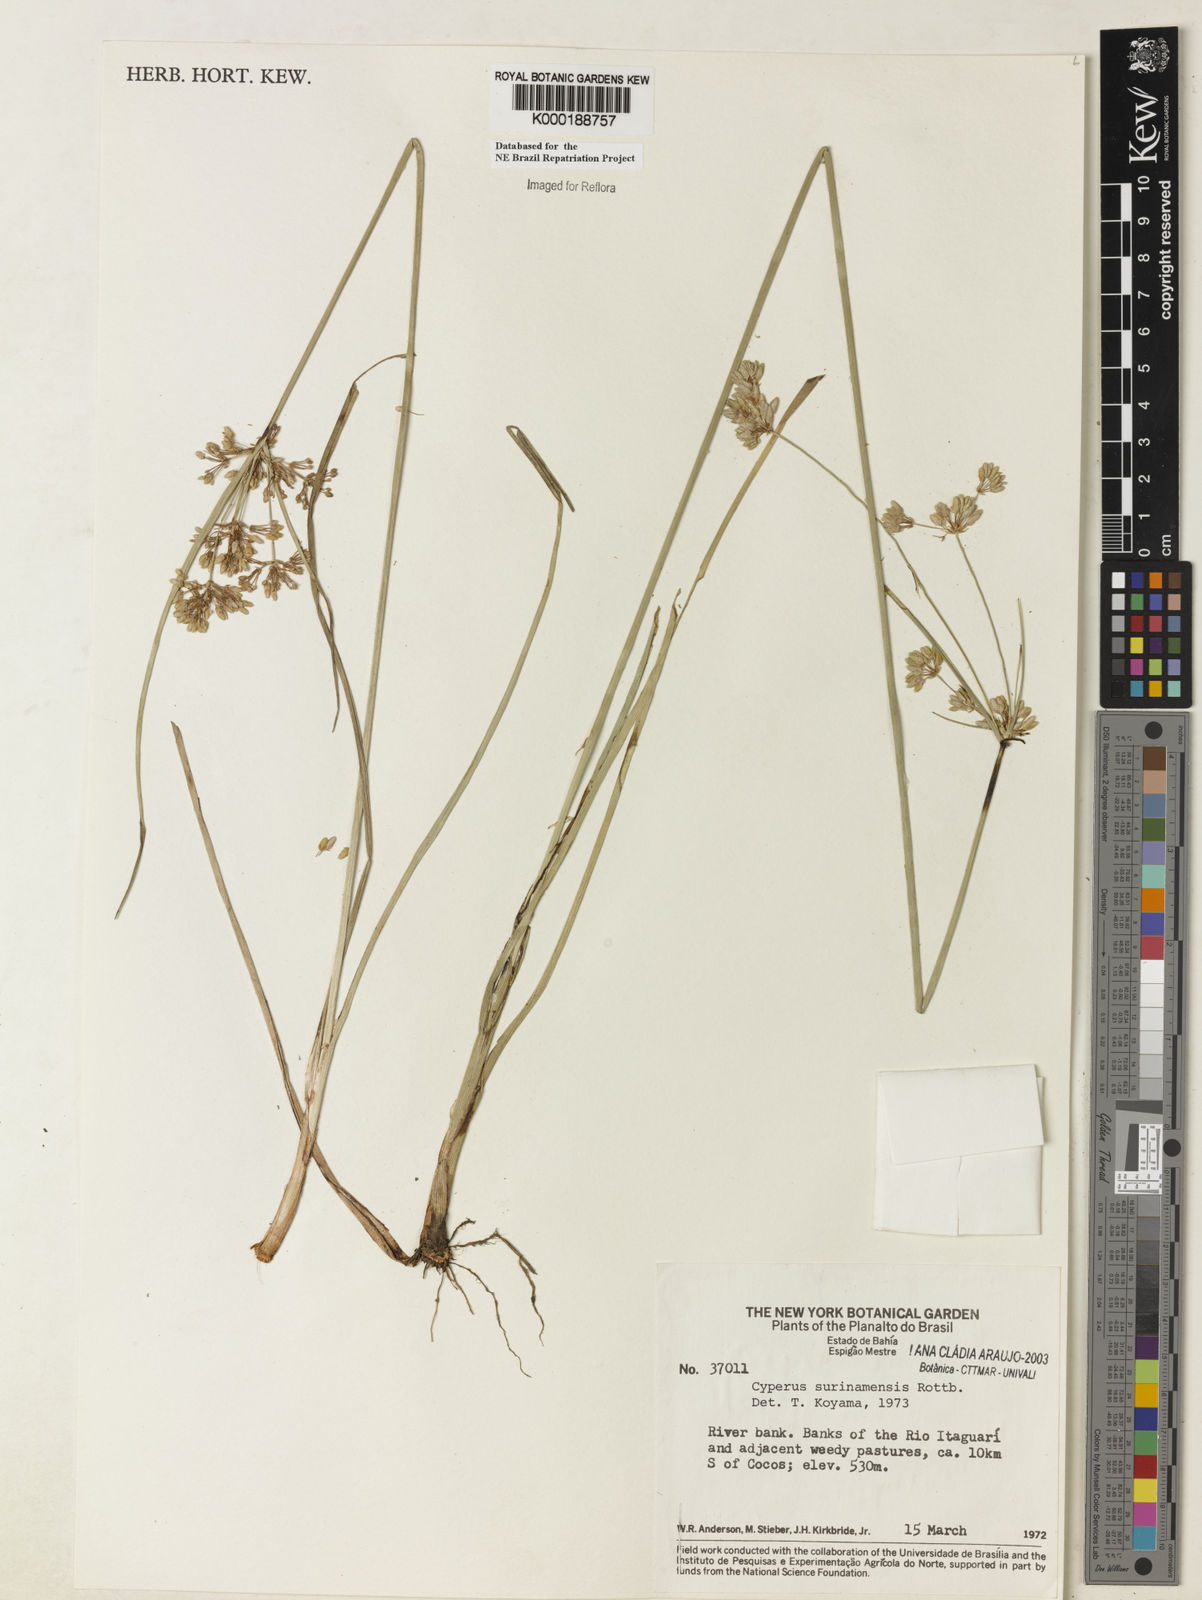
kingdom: Plantae
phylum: Tracheophyta
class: Liliopsida
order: Poales
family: Cyperaceae
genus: Cyperus
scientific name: Cyperus surinamensis
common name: Tropical flat sedge
